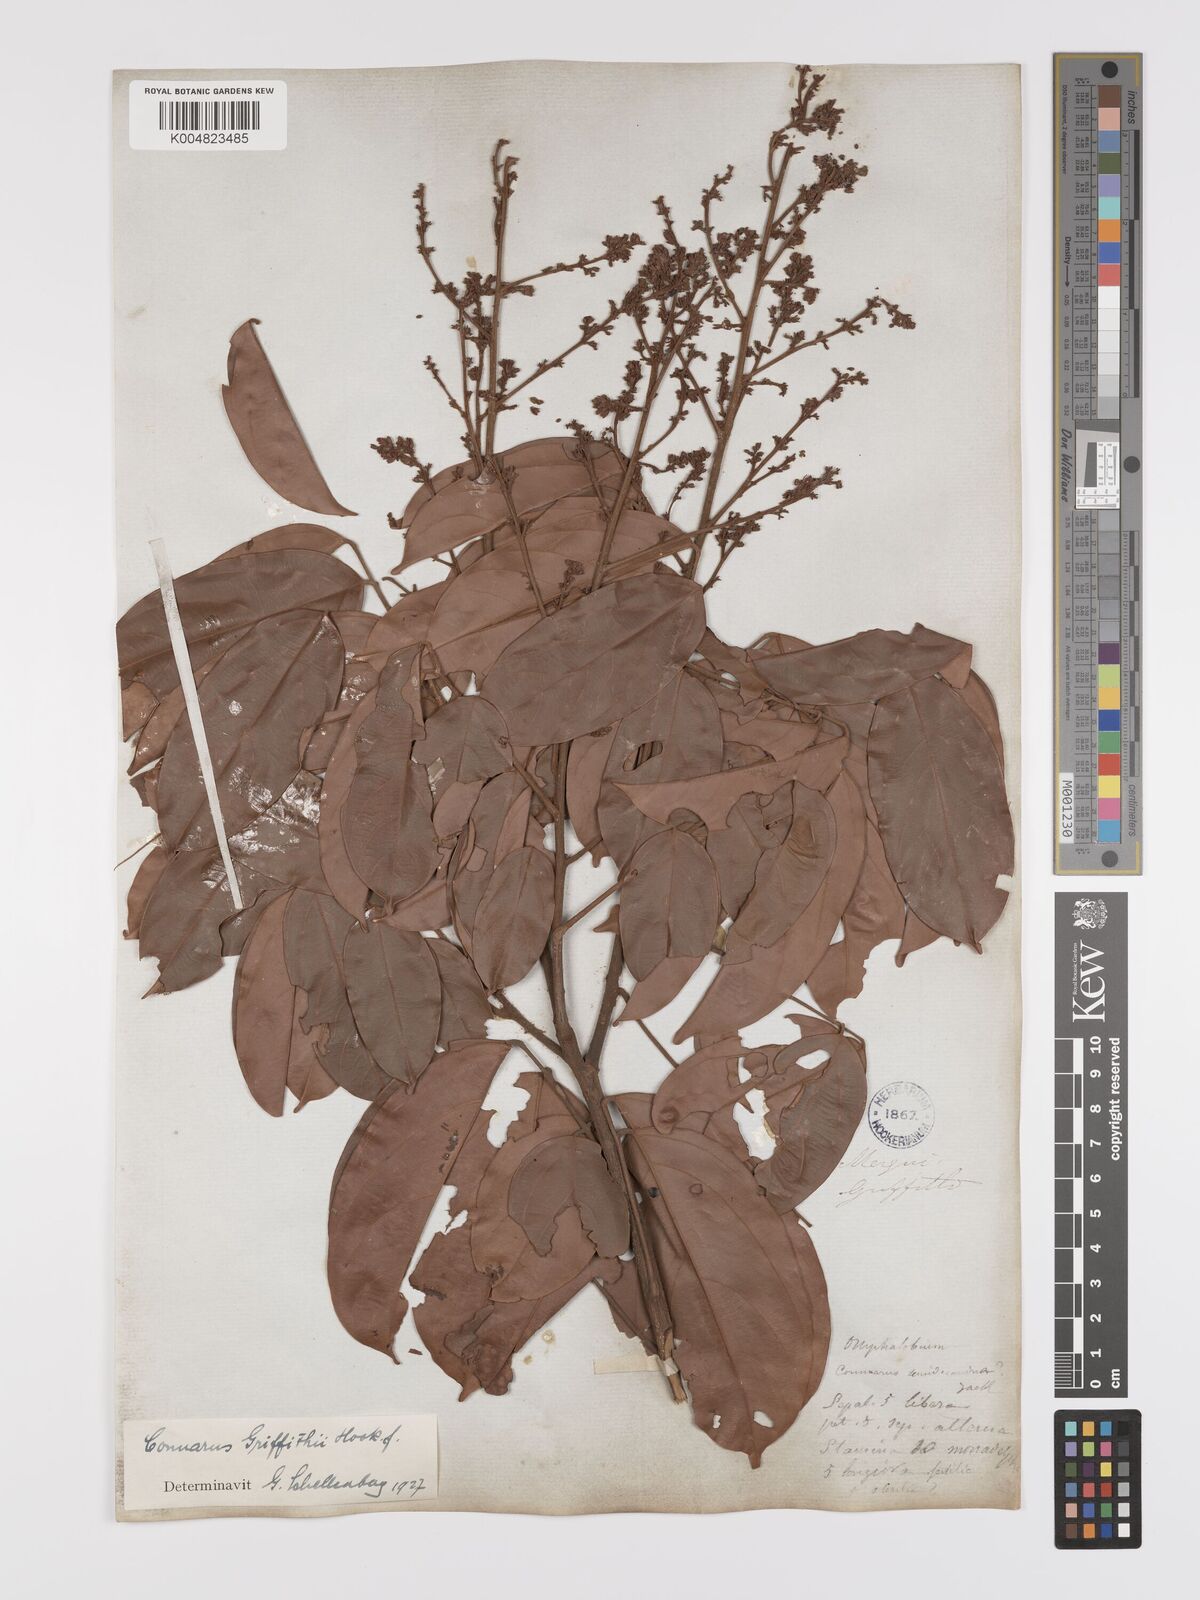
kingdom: Plantae
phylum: Tracheophyta
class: Magnoliopsida
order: Oxalidales
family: Connaraceae
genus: Connarus
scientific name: Connarus semidecandrus
